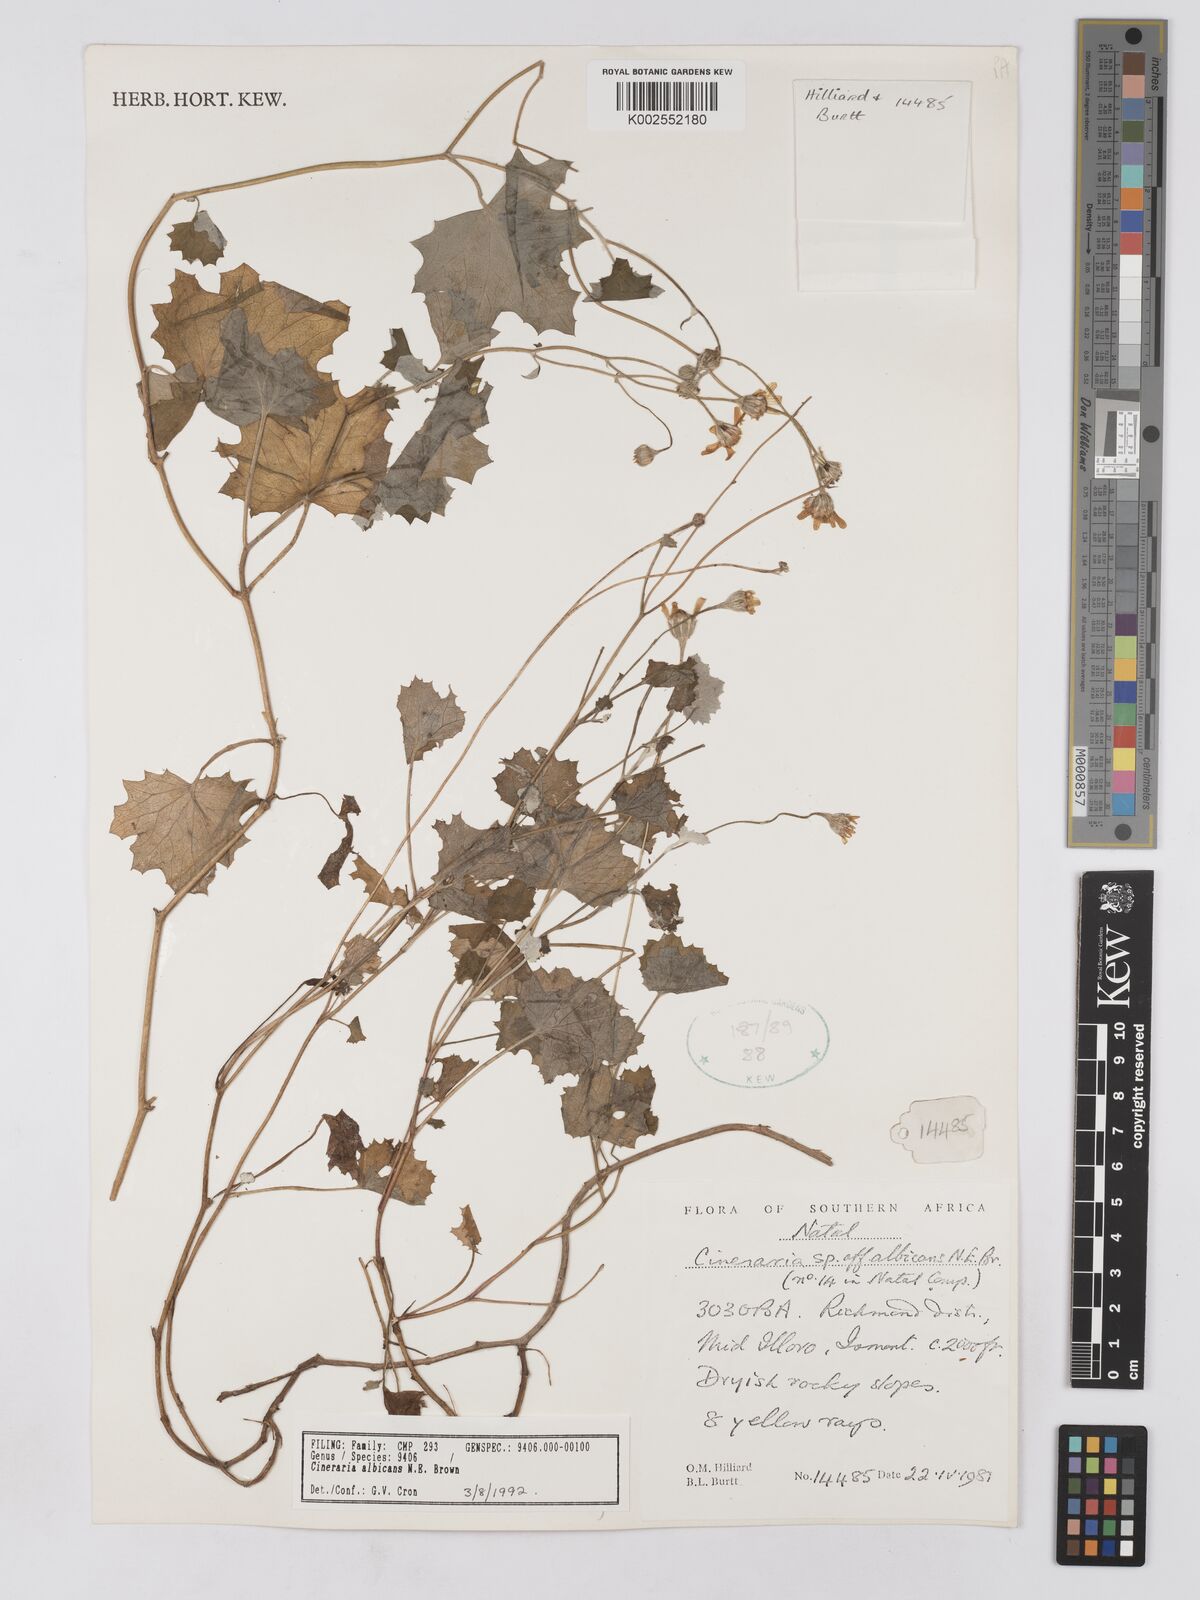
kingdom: Plantae
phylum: Tracheophyta
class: Magnoliopsida
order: Asterales
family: Asteraceae
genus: Cineraria
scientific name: Cineraria albicans
